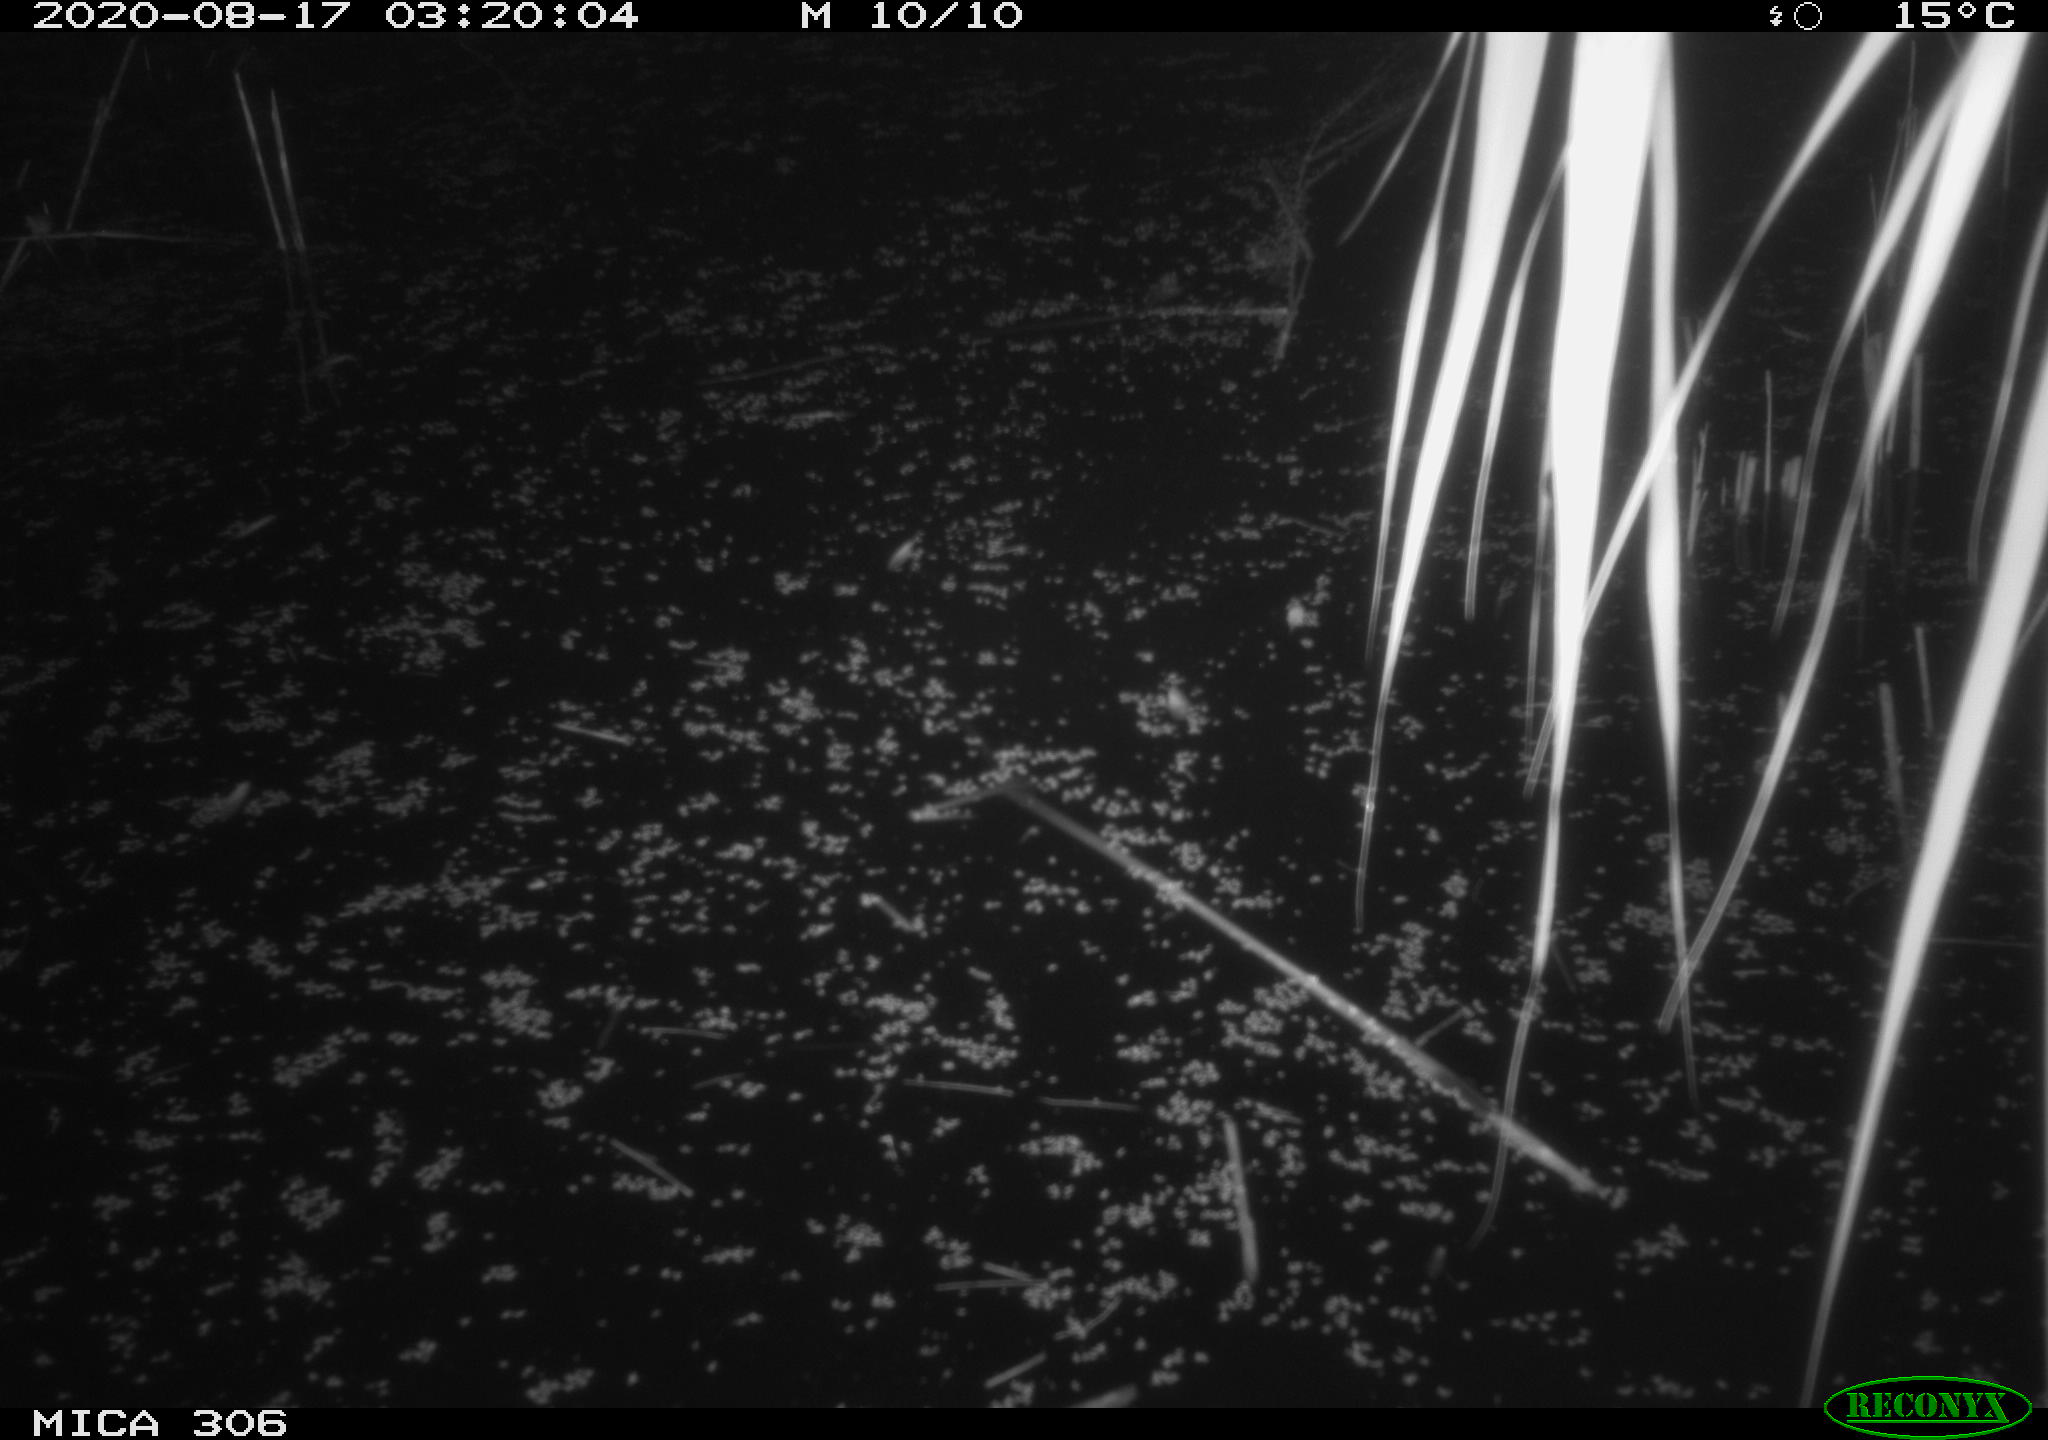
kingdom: Animalia
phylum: Chordata
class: Mammalia
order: Rodentia
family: Cricetidae
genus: Ondatra
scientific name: Ondatra zibethicus
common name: Muskrat
